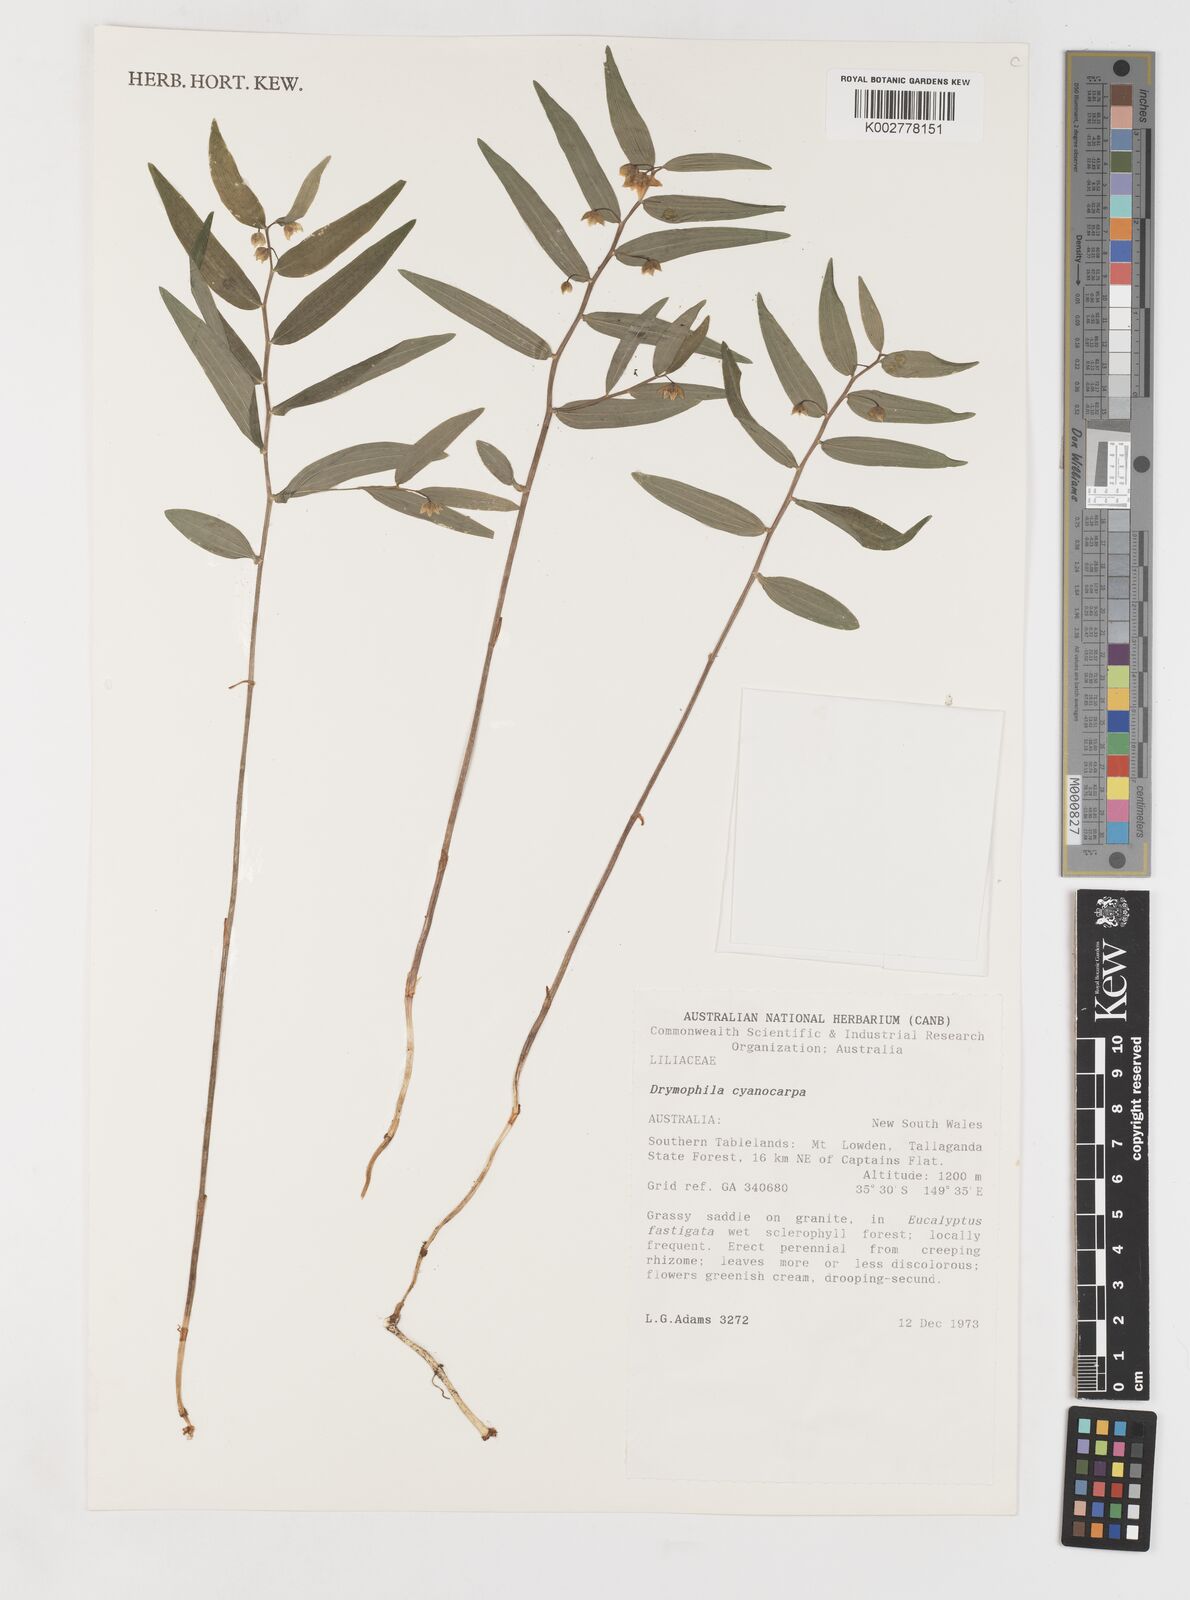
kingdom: Plantae
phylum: Tracheophyta
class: Liliopsida
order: Liliales
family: Alstroemeriaceae
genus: Drymophila
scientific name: Drymophila cyanocarpa
